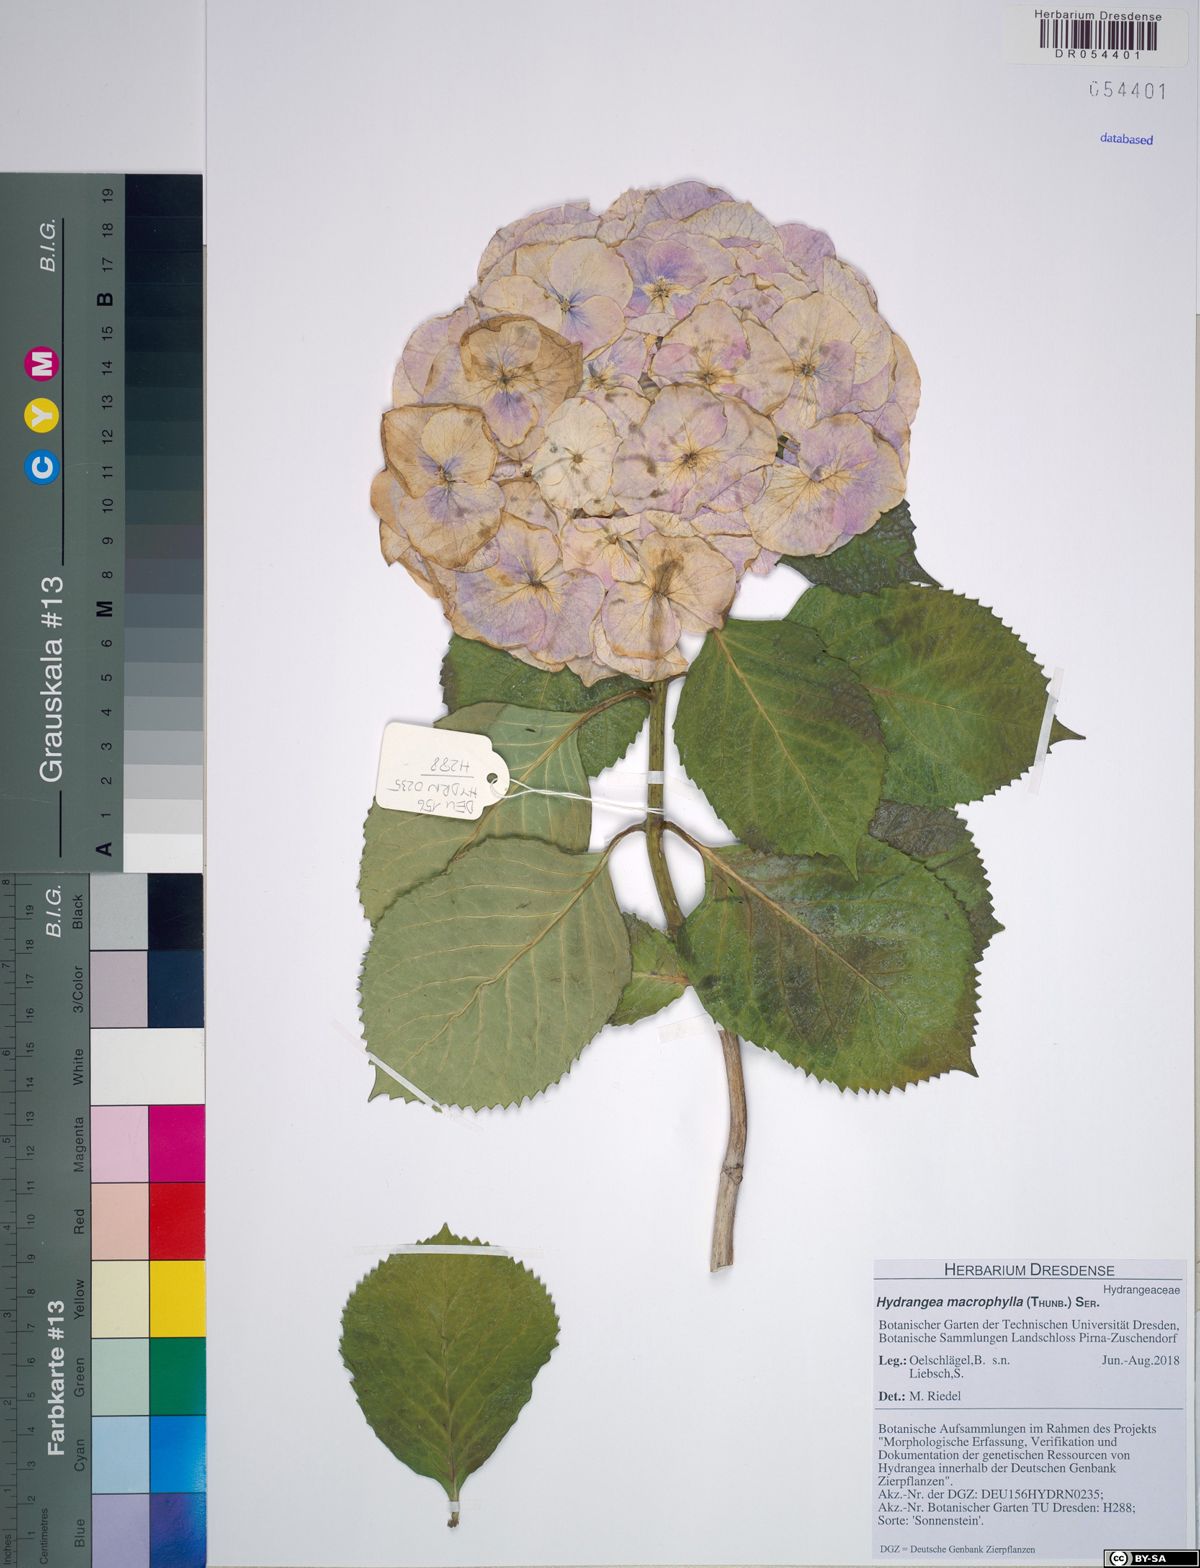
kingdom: Plantae
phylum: Tracheophyta
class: Magnoliopsida
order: Cornales
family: Hydrangeaceae
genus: Hydrangea
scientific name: Hydrangea macrophylla
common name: Hydrangea
